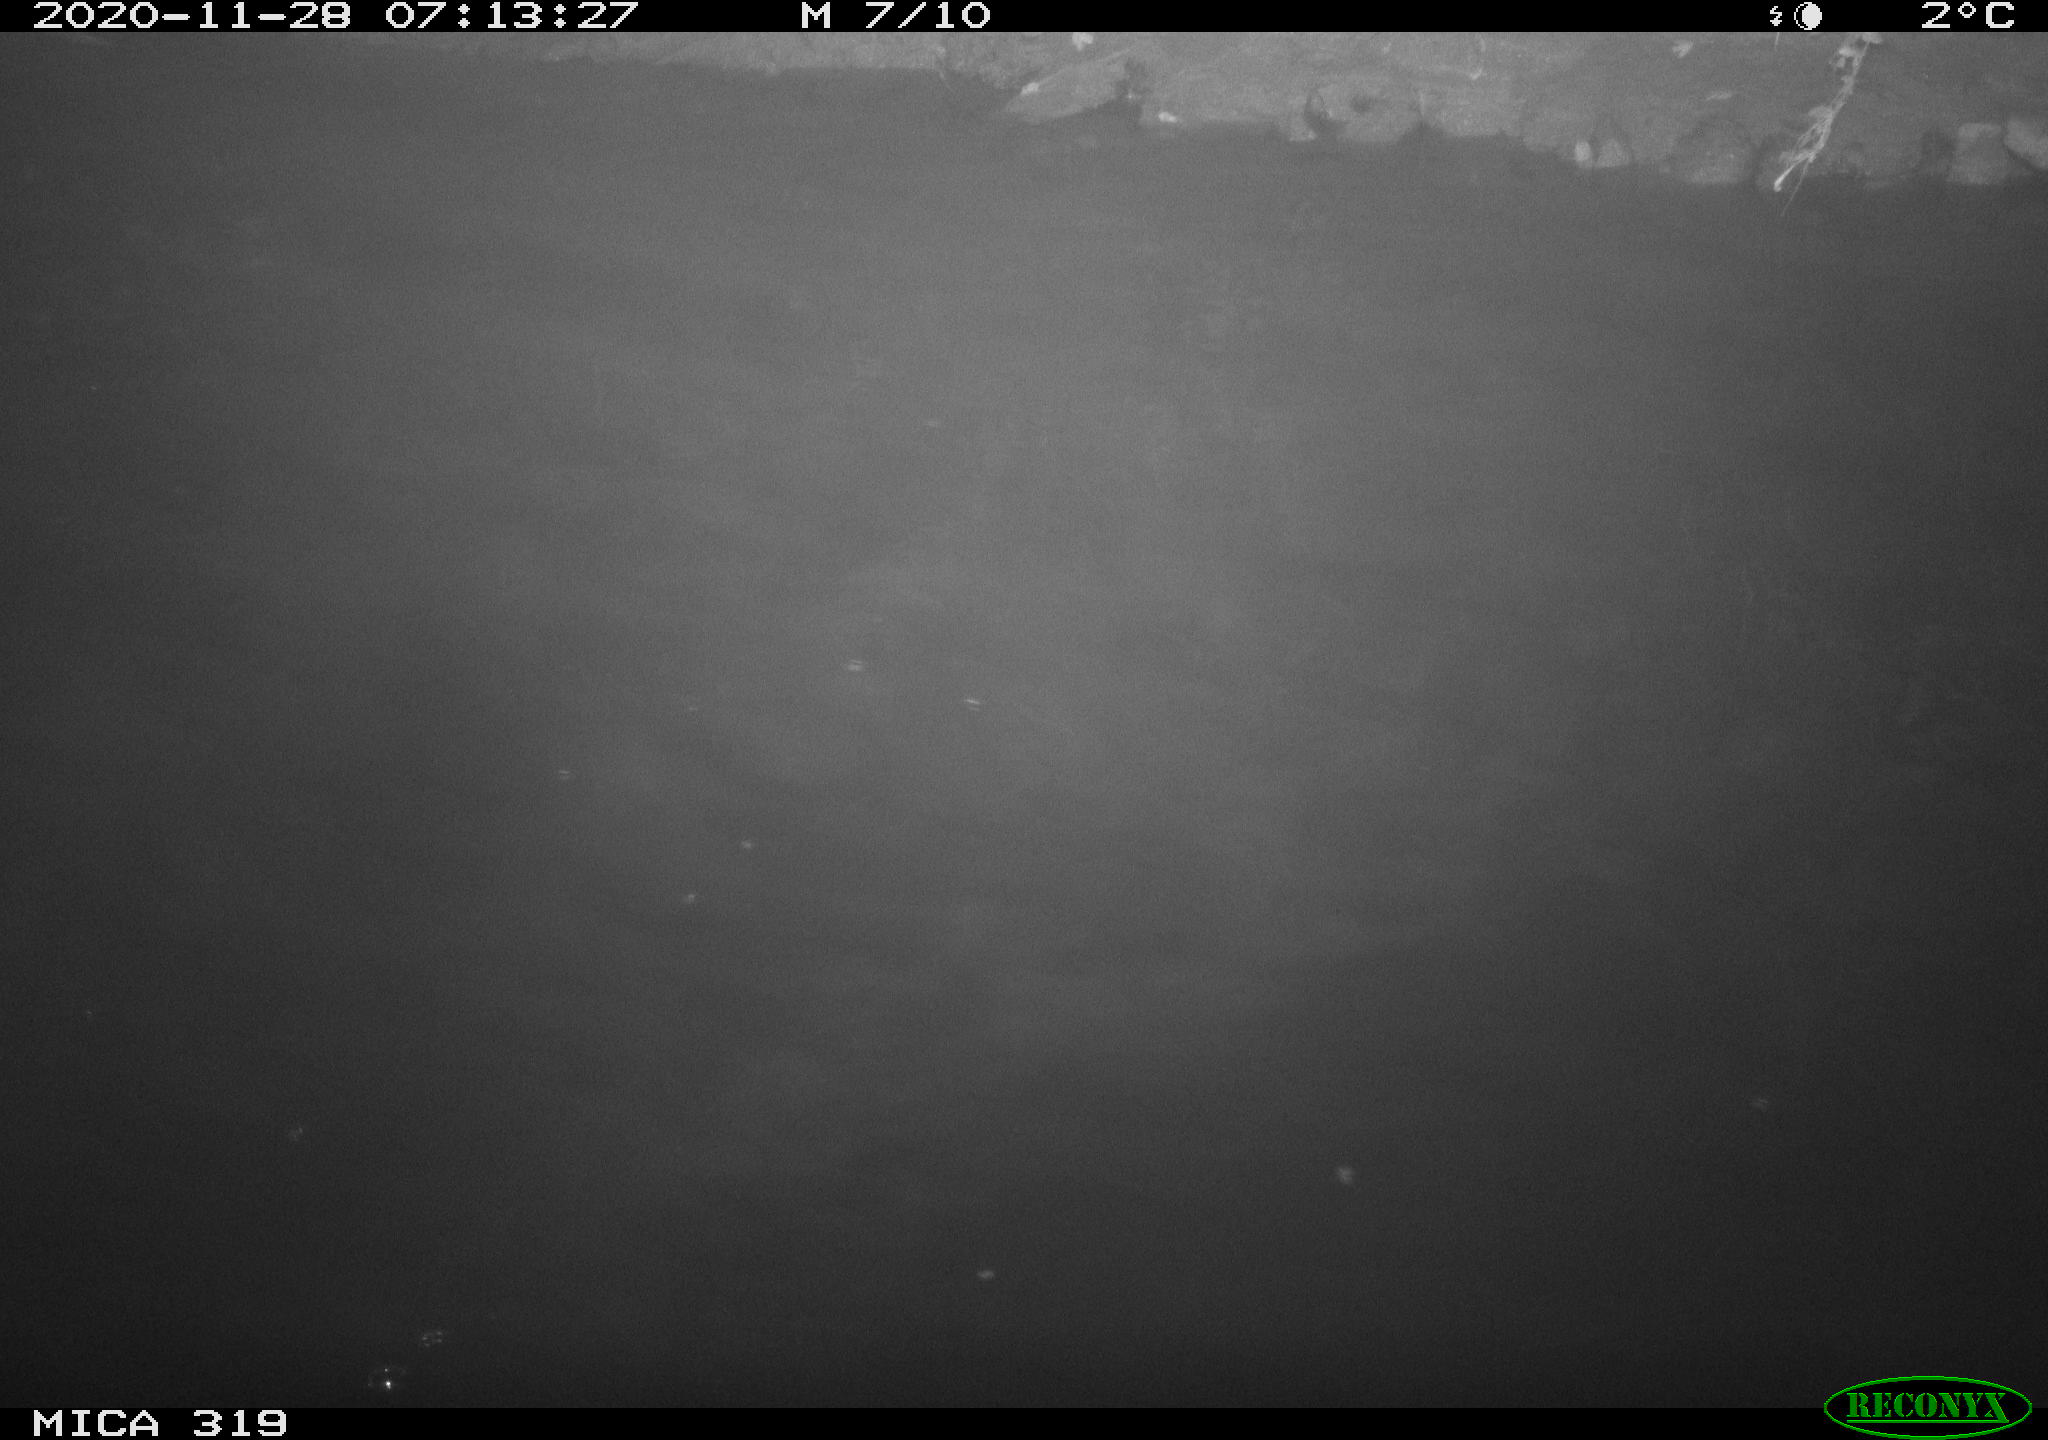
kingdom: Animalia
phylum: Chordata
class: Aves
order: Anseriformes
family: Anatidae
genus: Anas
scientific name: Anas platyrhynchos
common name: Mallard
